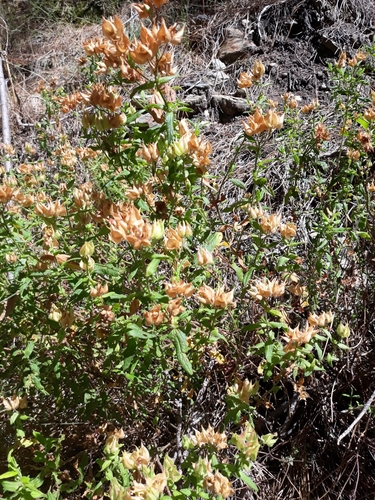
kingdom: Plantae
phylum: Tracheophyta
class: Magnoliopsida
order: Malvales
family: Cistaceae
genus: Cistus
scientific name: Cistus
